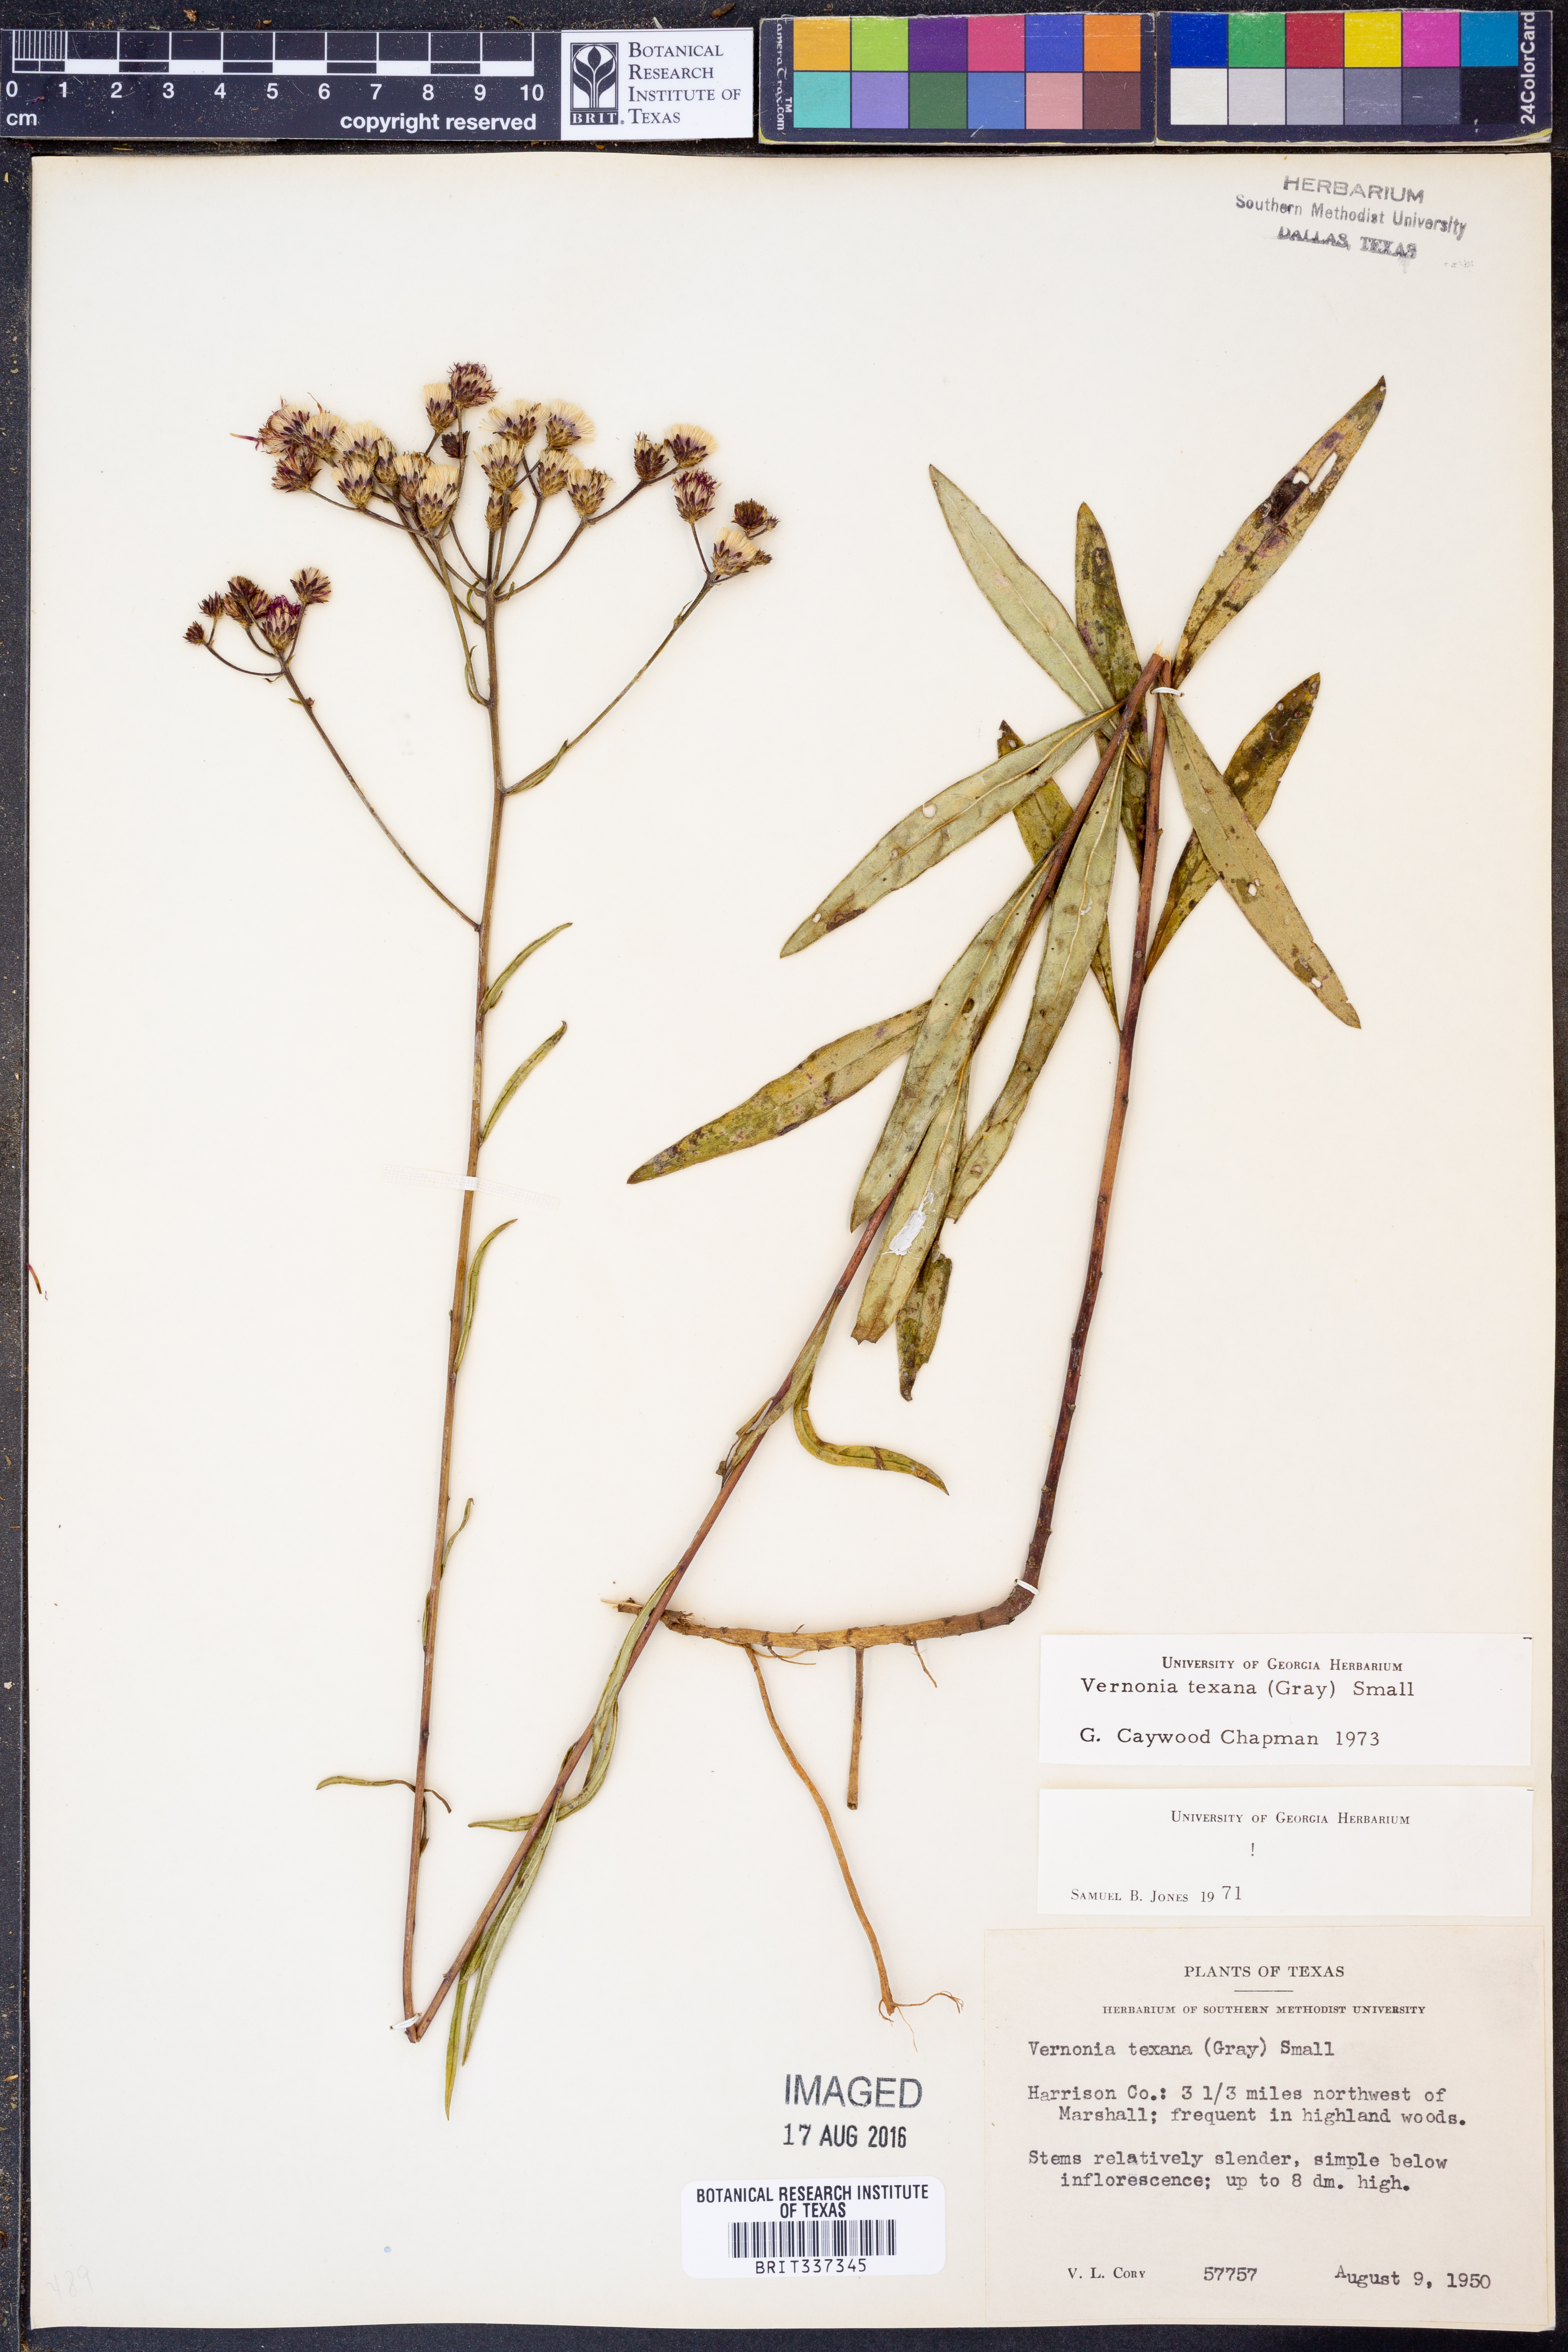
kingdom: Plantae
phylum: Tracheophyta
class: Magnoliopsida
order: Asterales
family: Asteraceae
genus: Vernonia
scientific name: Vernonia texana
